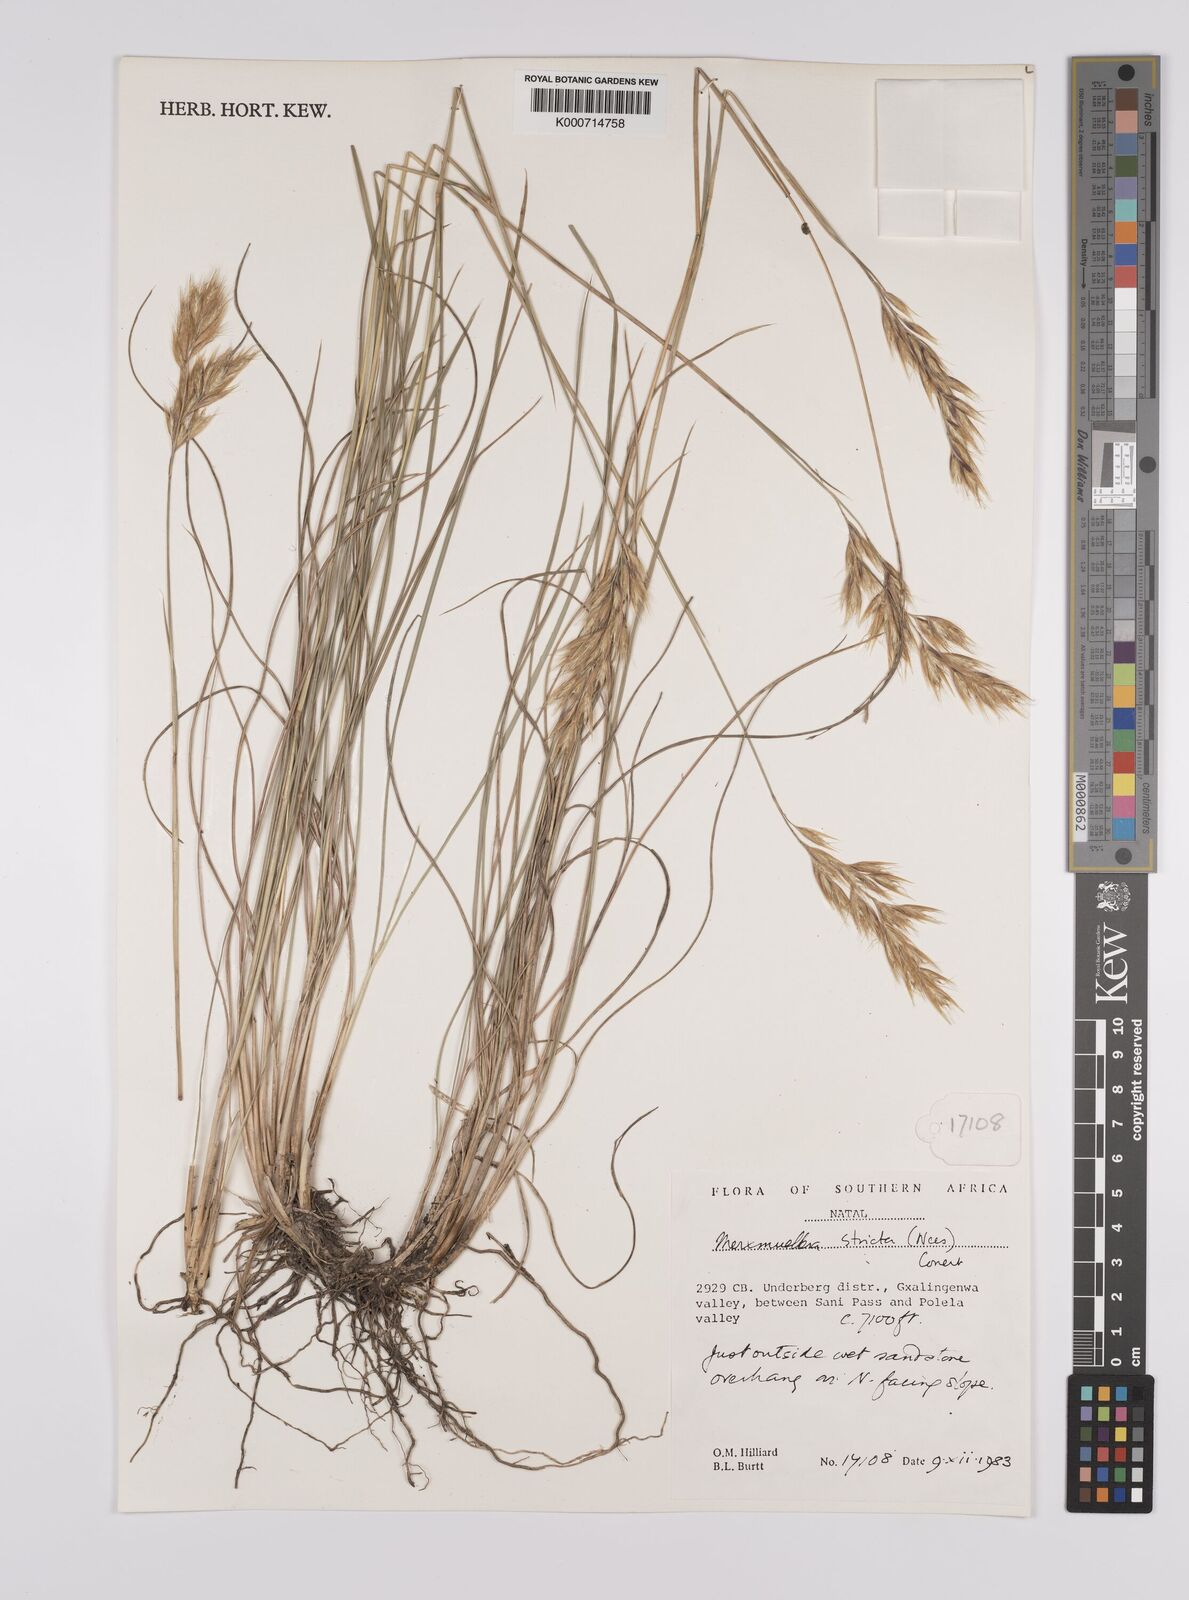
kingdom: Plantae
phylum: Tracheophyta
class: Liliopsida
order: Poales
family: Poaceae
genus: Rytidosperma
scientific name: Rytidosperma
